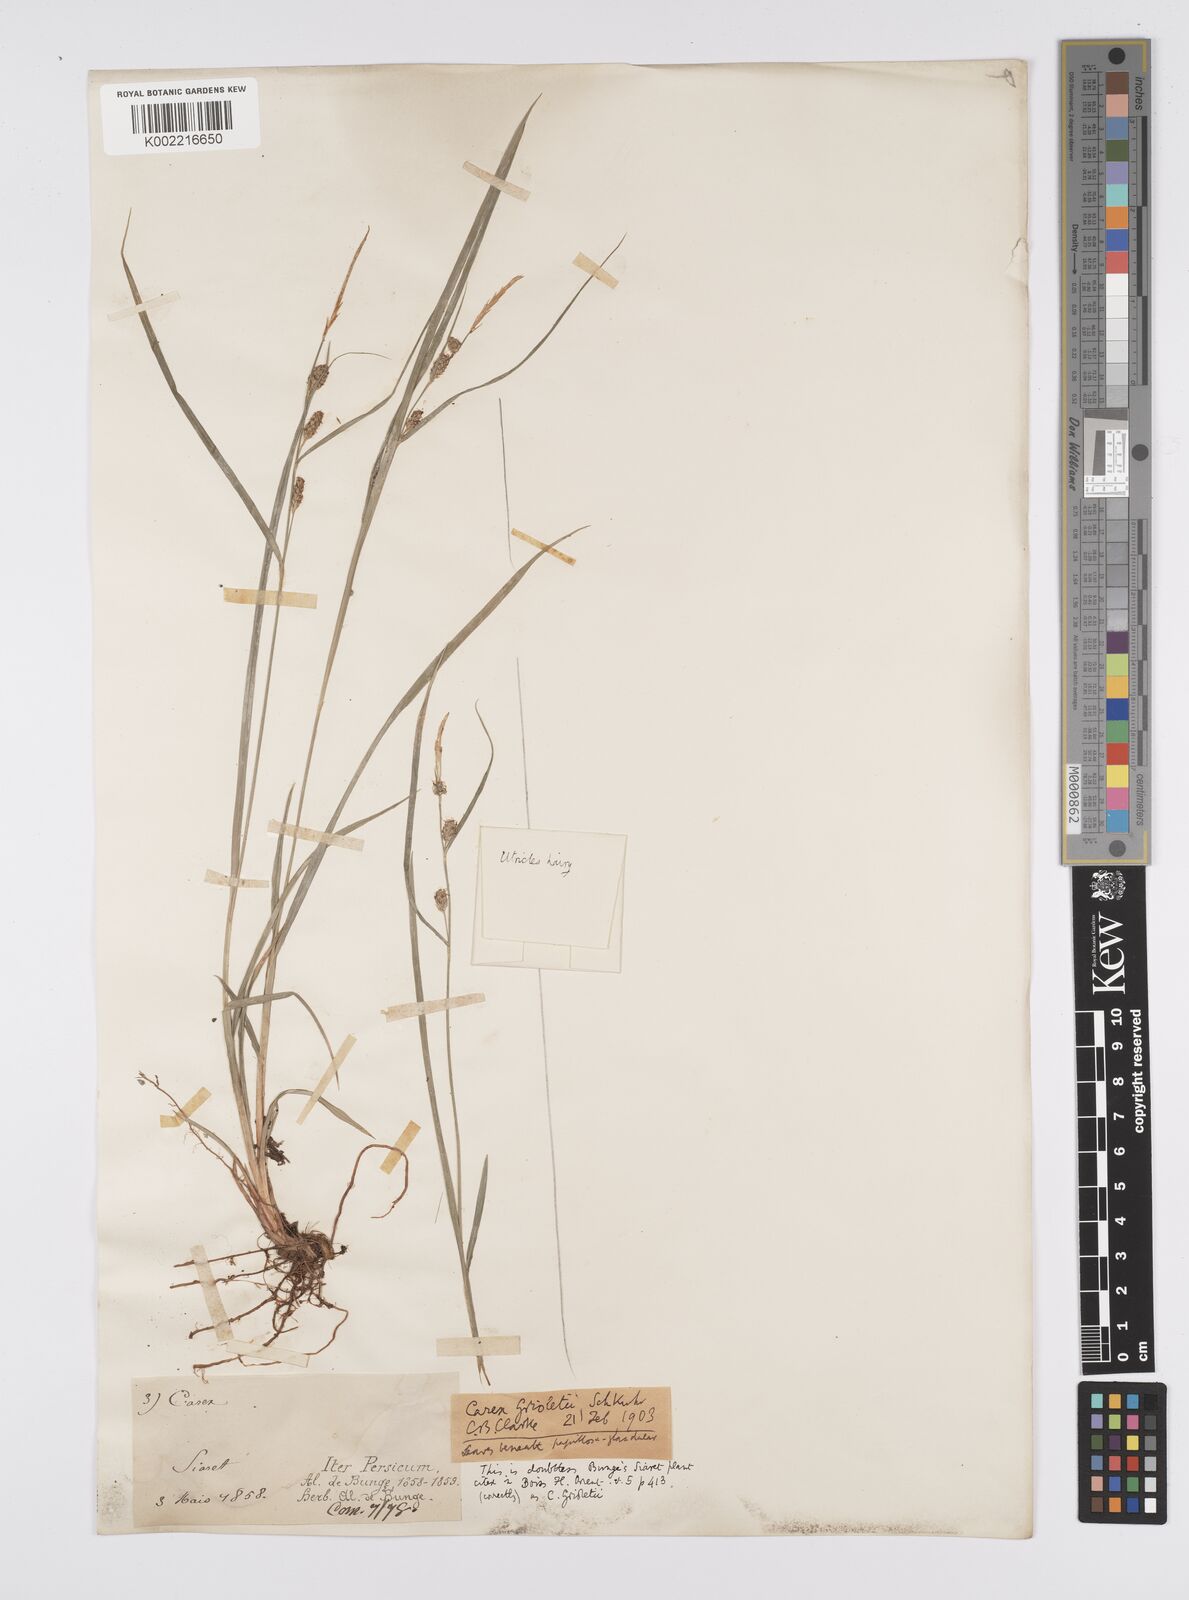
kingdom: Plantae
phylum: Tracheophyta
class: Liliopsida
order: Poales
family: Cyperaceae
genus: Carex
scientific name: Carex grioletii
